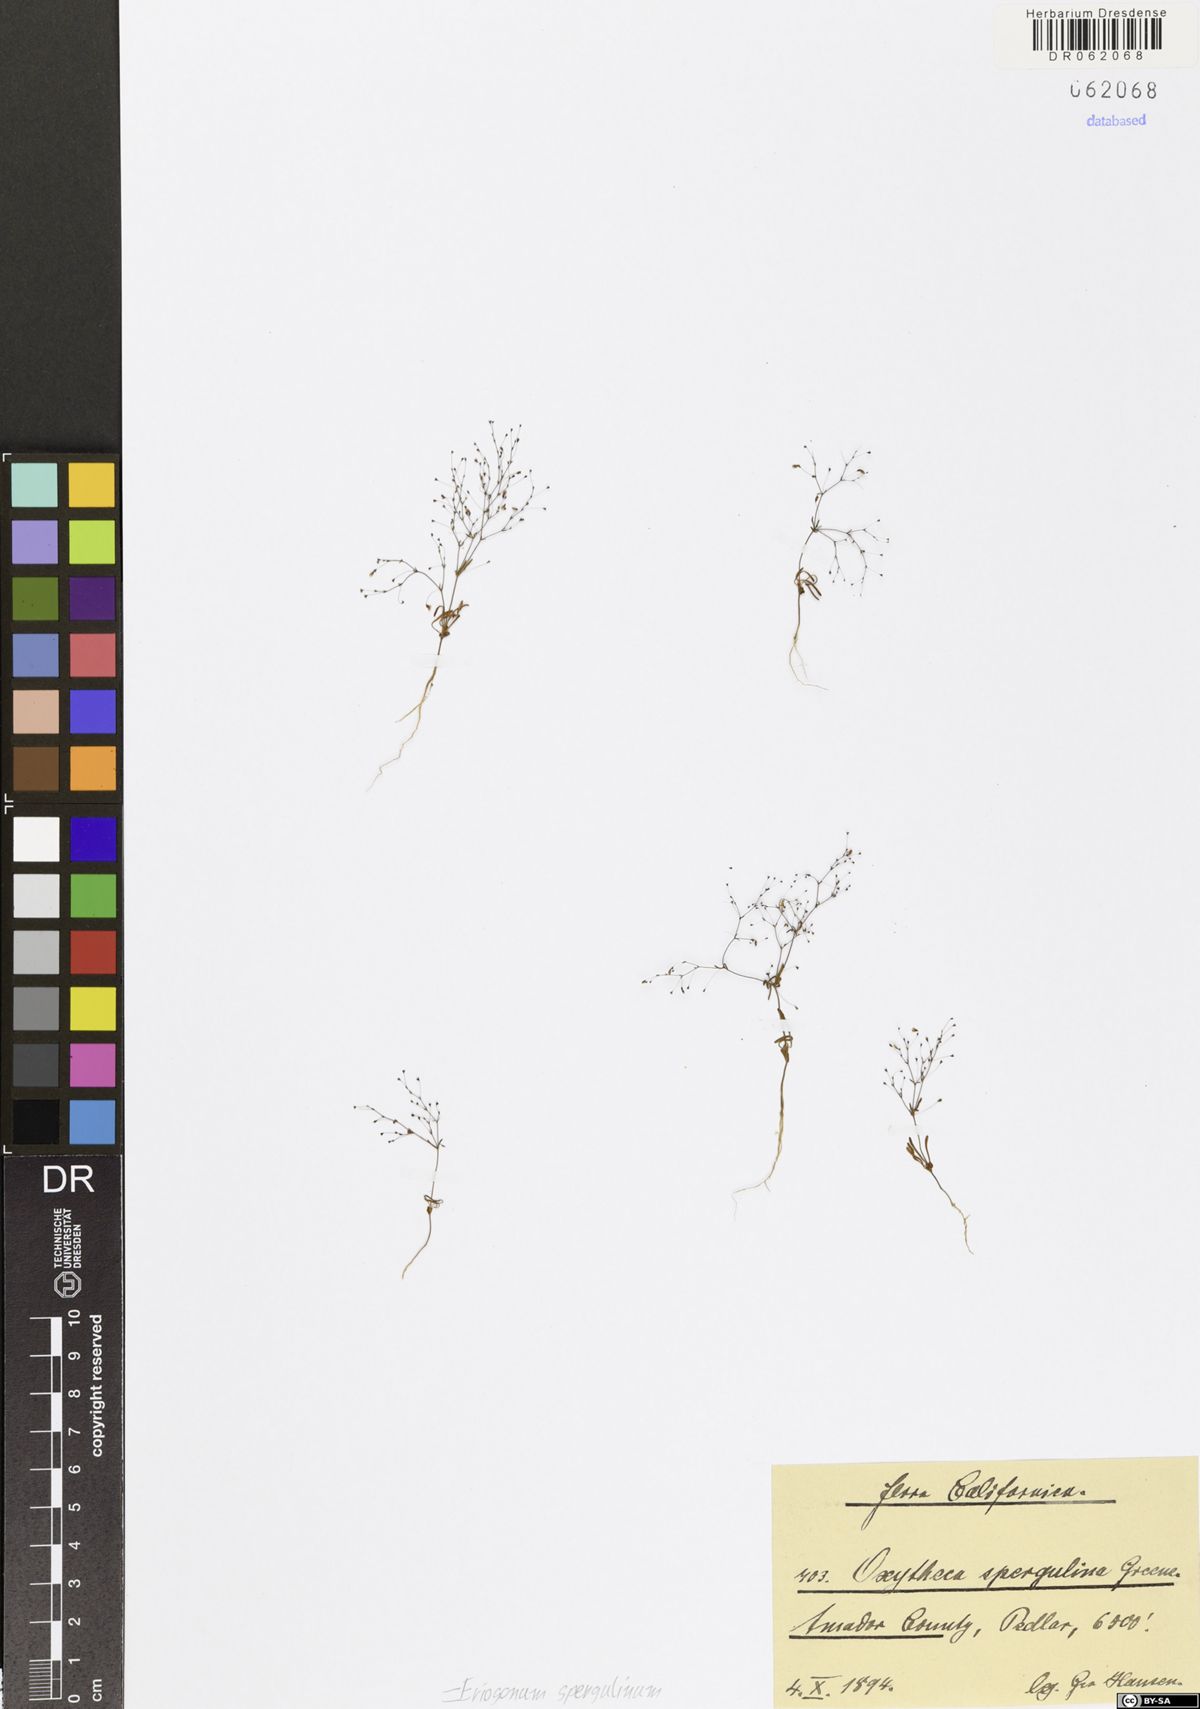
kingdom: Plantae
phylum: Tracheophyta
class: Magnoliopsida
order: Caryophyllales
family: Polygonaceae
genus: Eriogonum
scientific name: Eriogonum spergulinum
